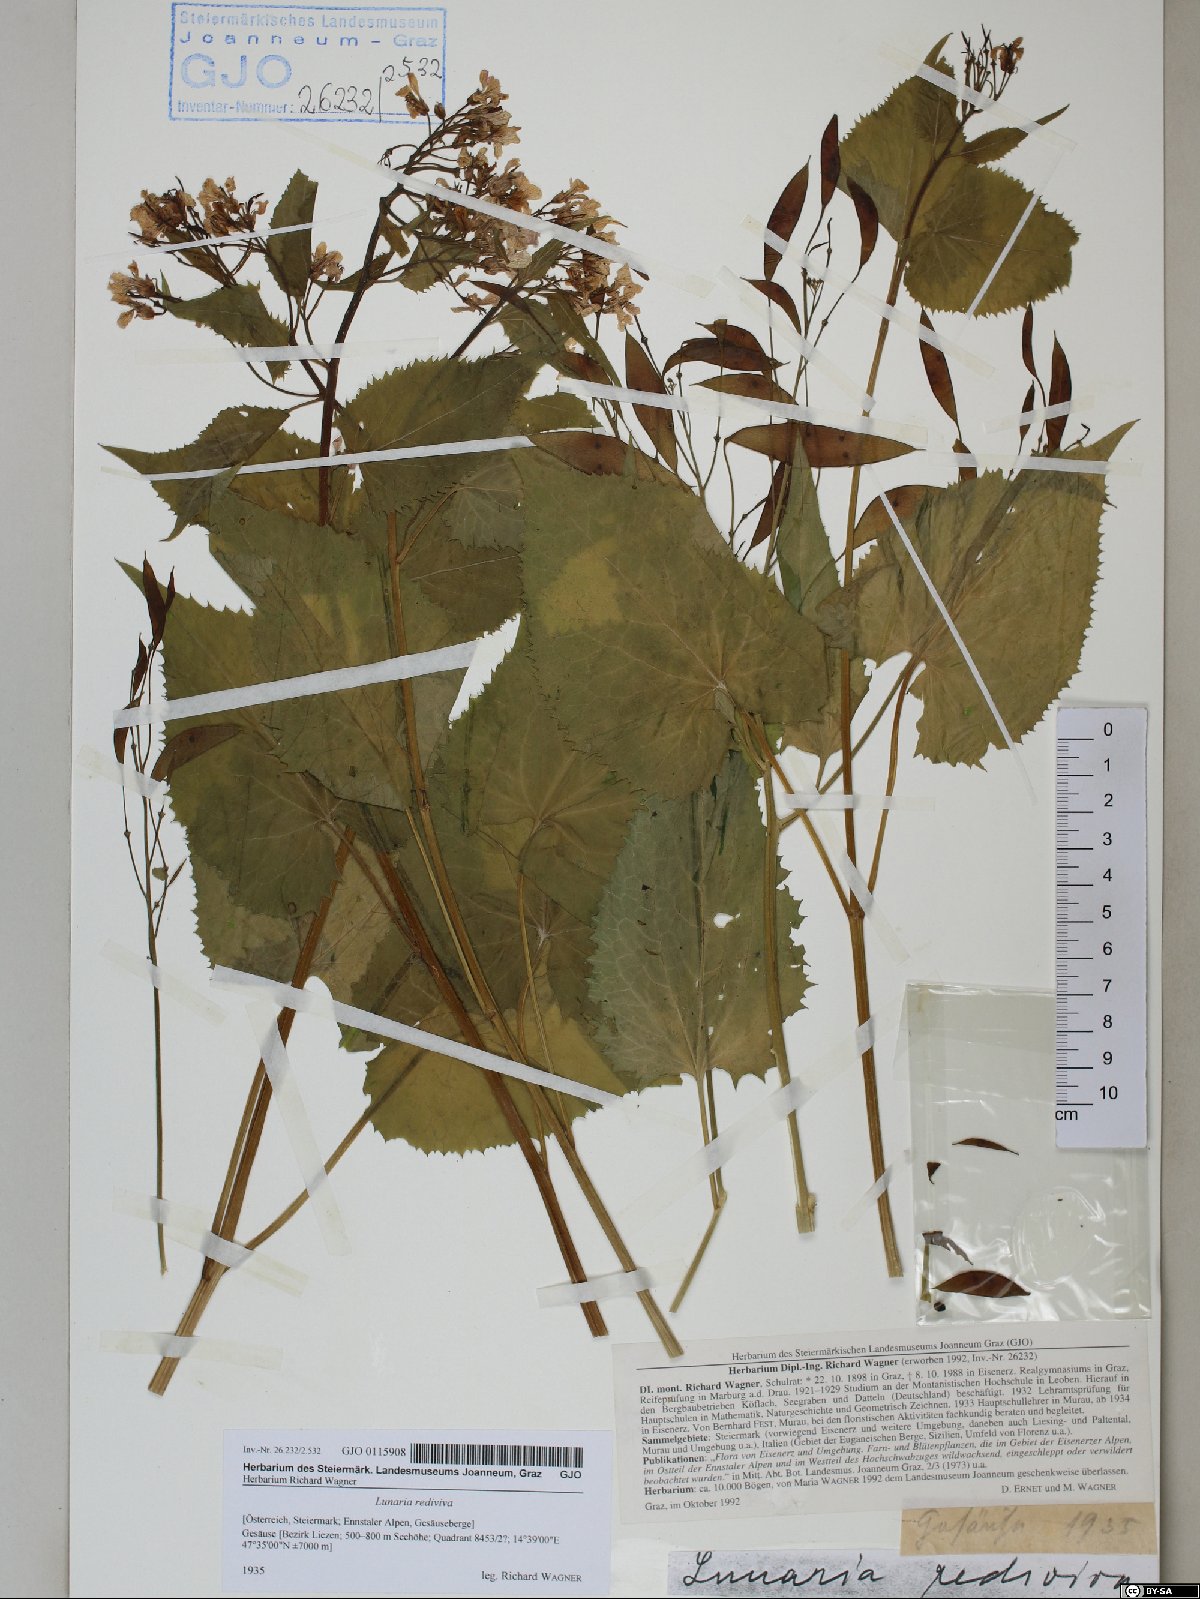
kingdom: Plantae
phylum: Tracheophyta
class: Magnoliopsida
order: Brassicales
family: Brassicaceae
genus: Lunaria
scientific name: Lunaria rediviva
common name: Perennial honesty
